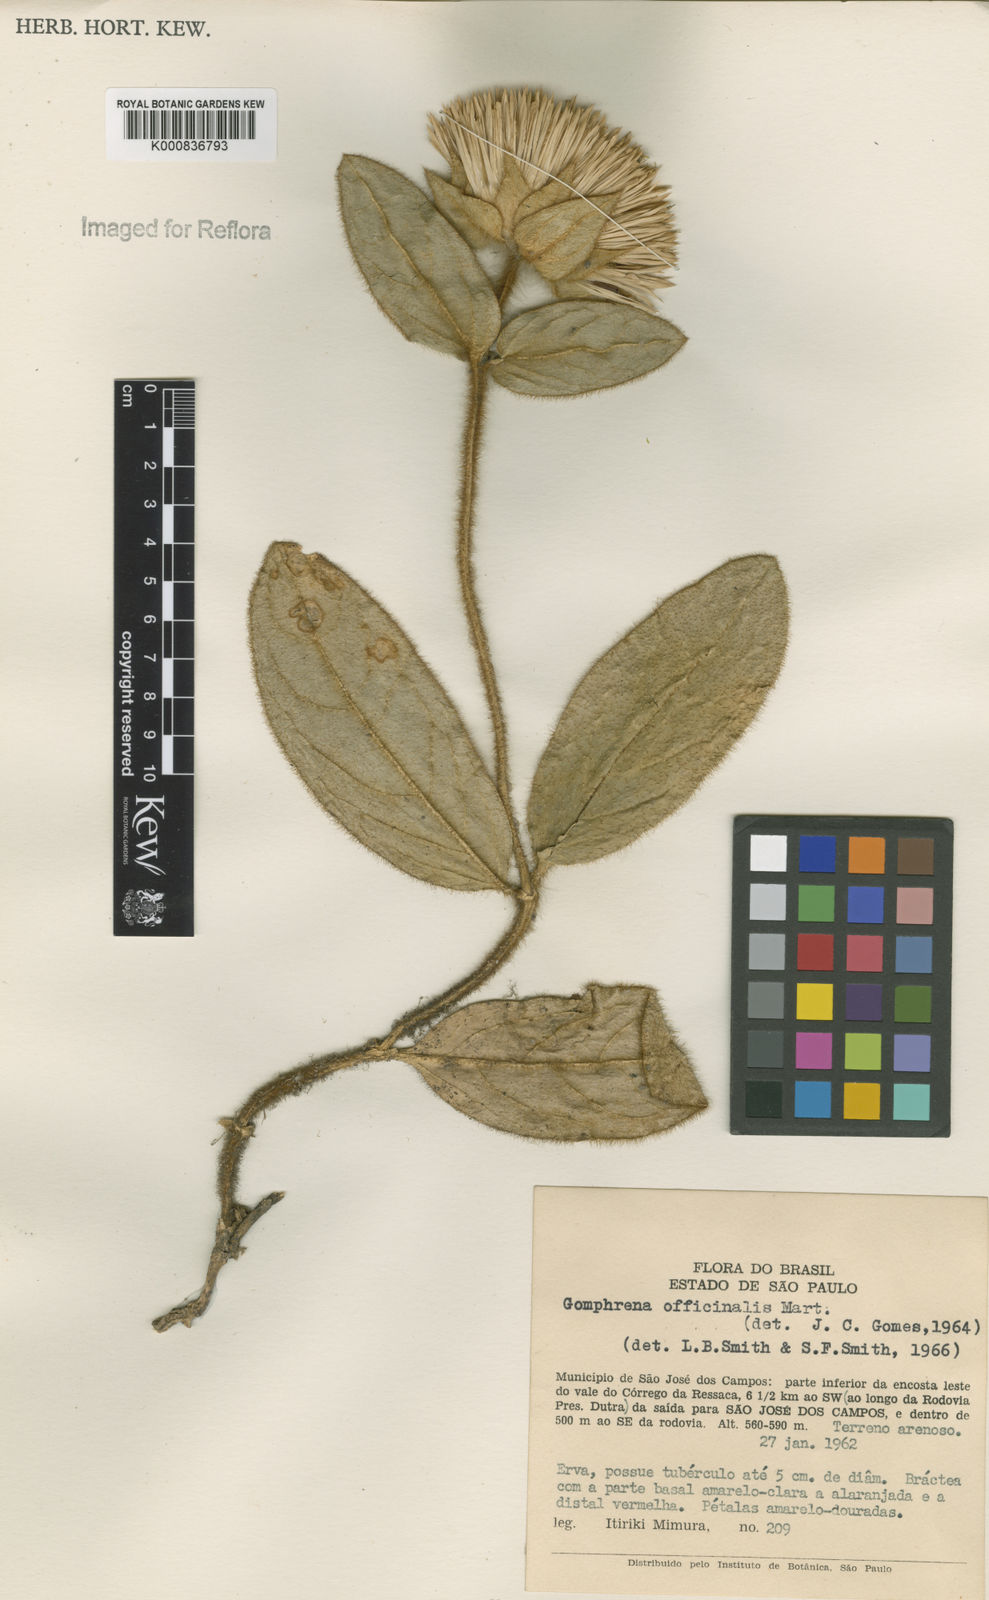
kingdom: Plantae
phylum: Tracheophyta
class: Magnoliopsida
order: Caryophyllales
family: Amaranthaceae
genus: Gomphrena
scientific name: Gomphrena arborescens
